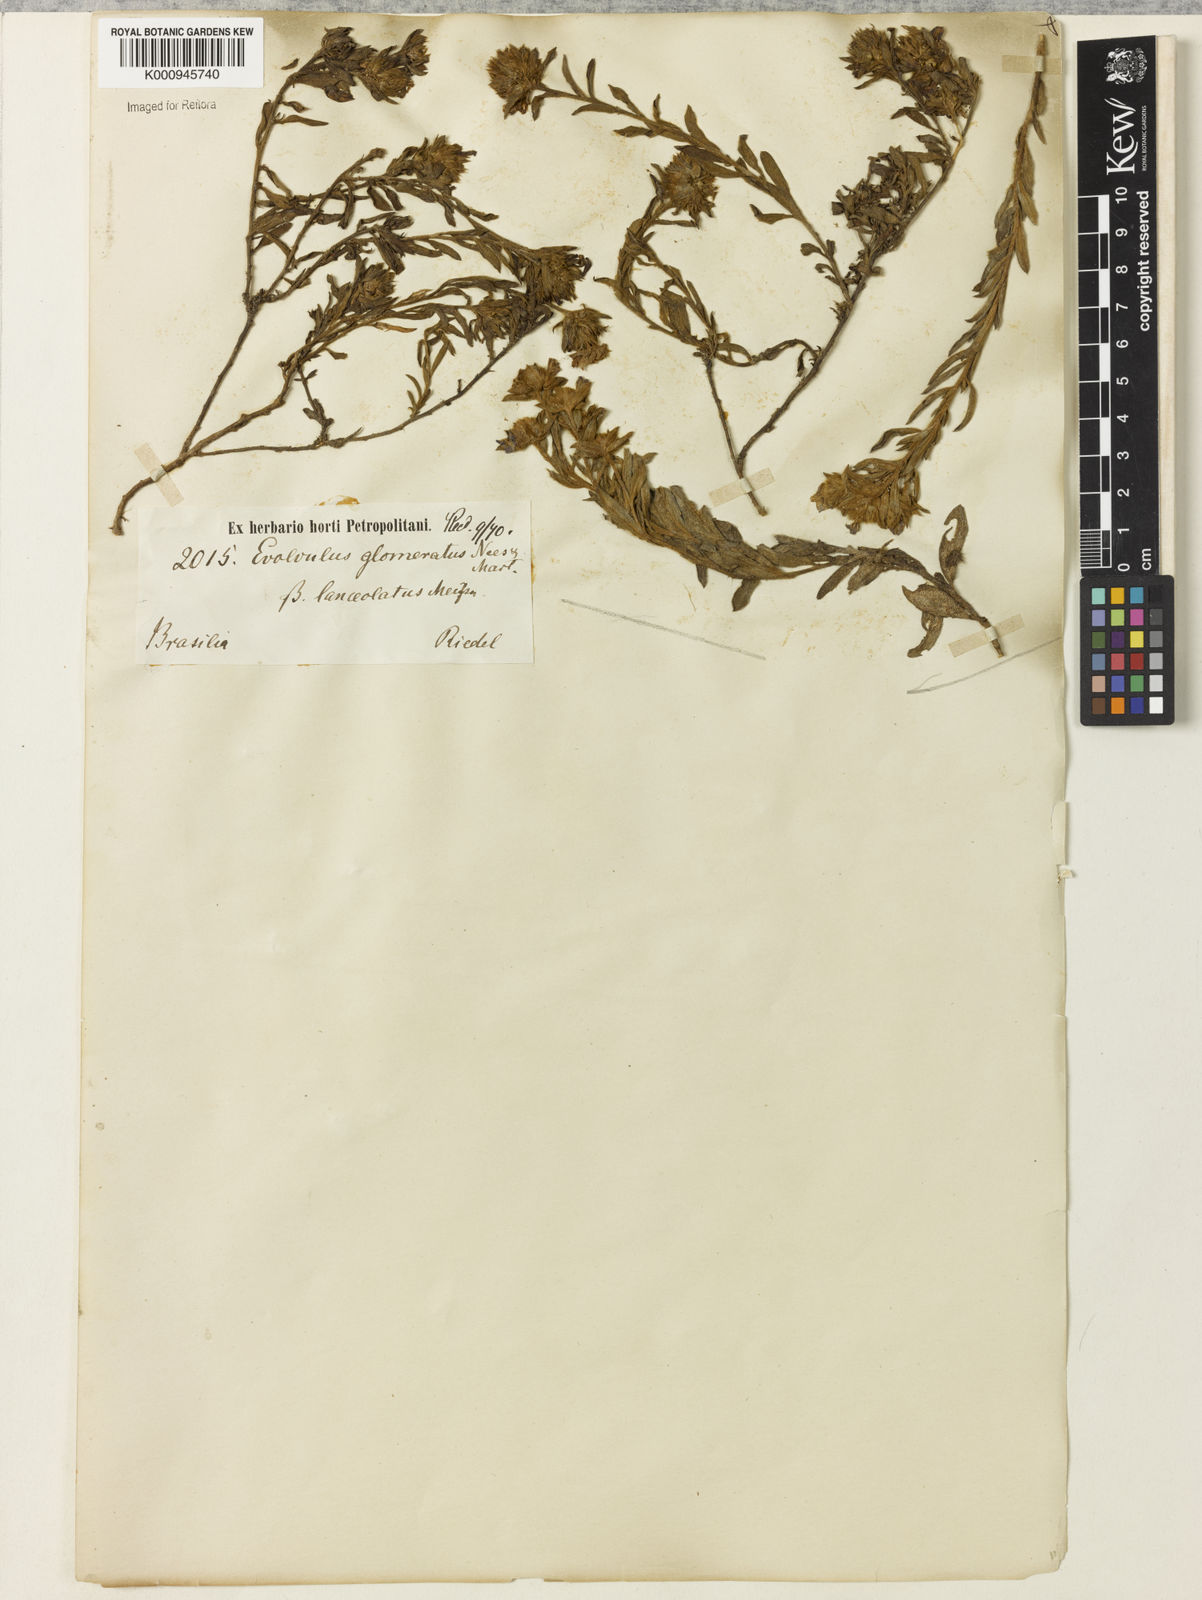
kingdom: Plantae
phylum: Tracheophyta
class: Magnoliopsida
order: Solanales
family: Convolvulaceae
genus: Evolvulus
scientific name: Evolvulus glomeratus
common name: Brazilian dwarf morning-glory
